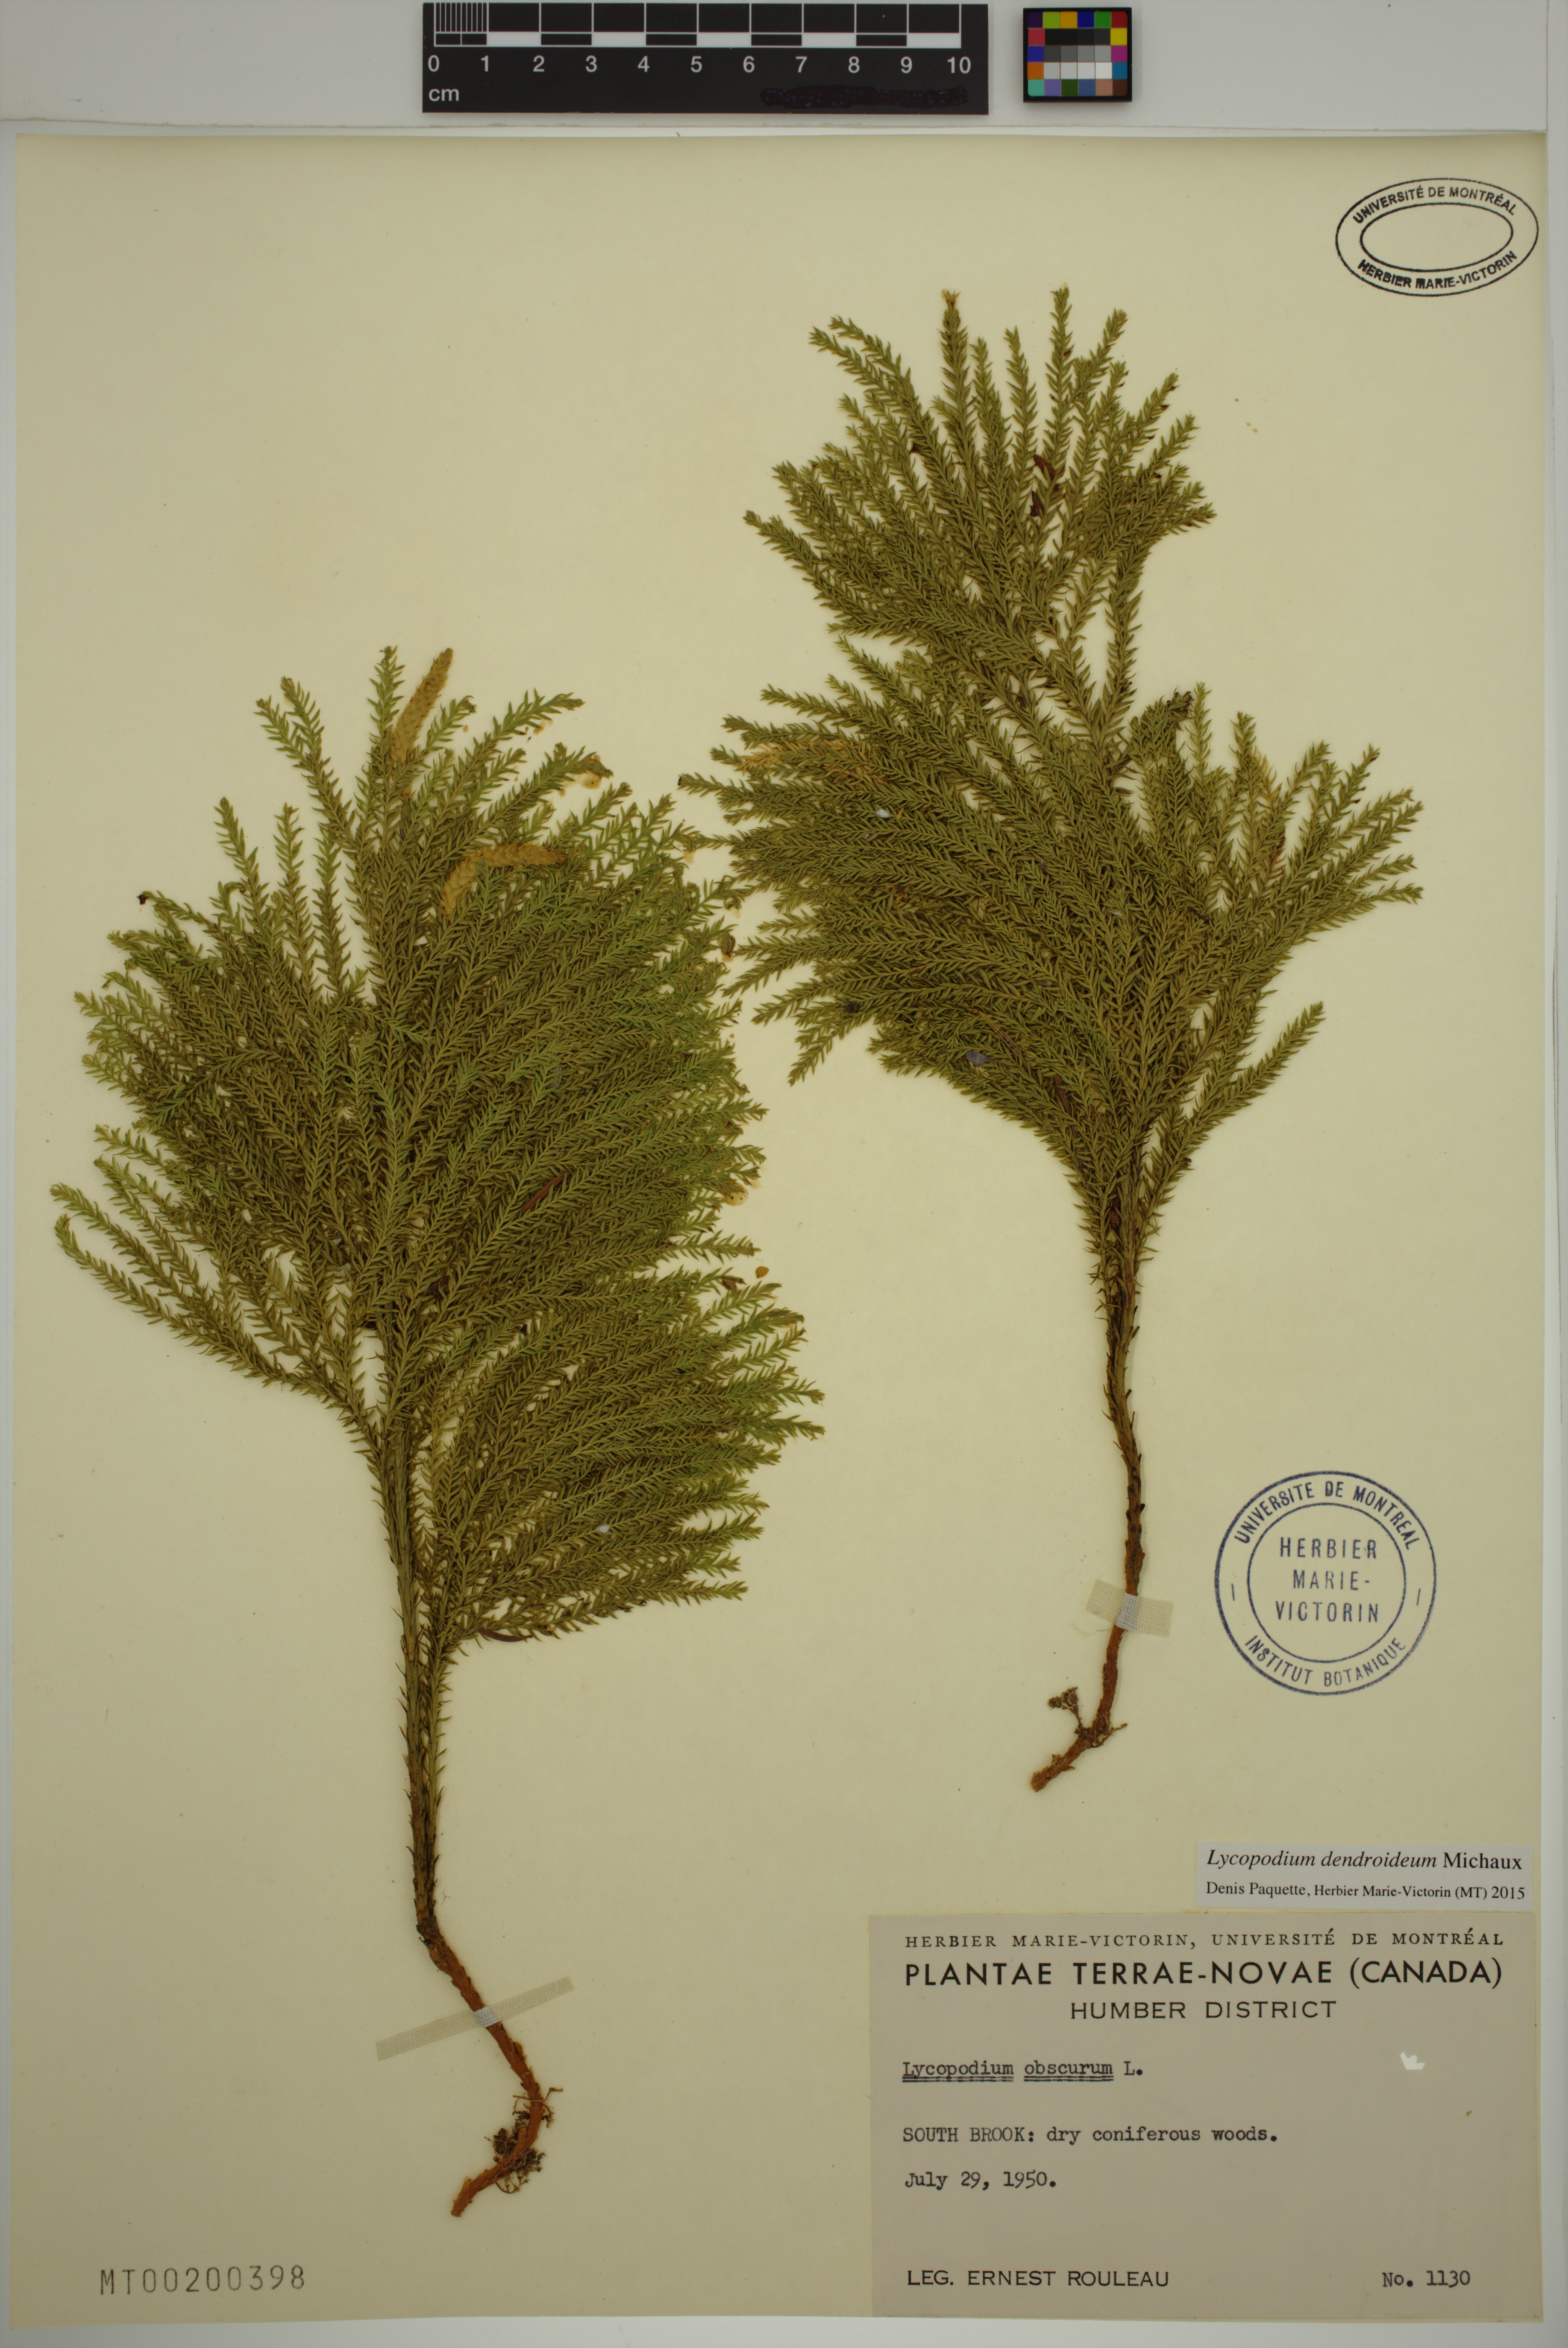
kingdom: Plantae
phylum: Tracheophyta
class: Lycopodiopsida
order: Lycopodiales
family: Lycopodiaceae
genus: Dendrolycopodium
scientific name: Dendrolycopodium dendroideum
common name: Northern tree-clubmoss
